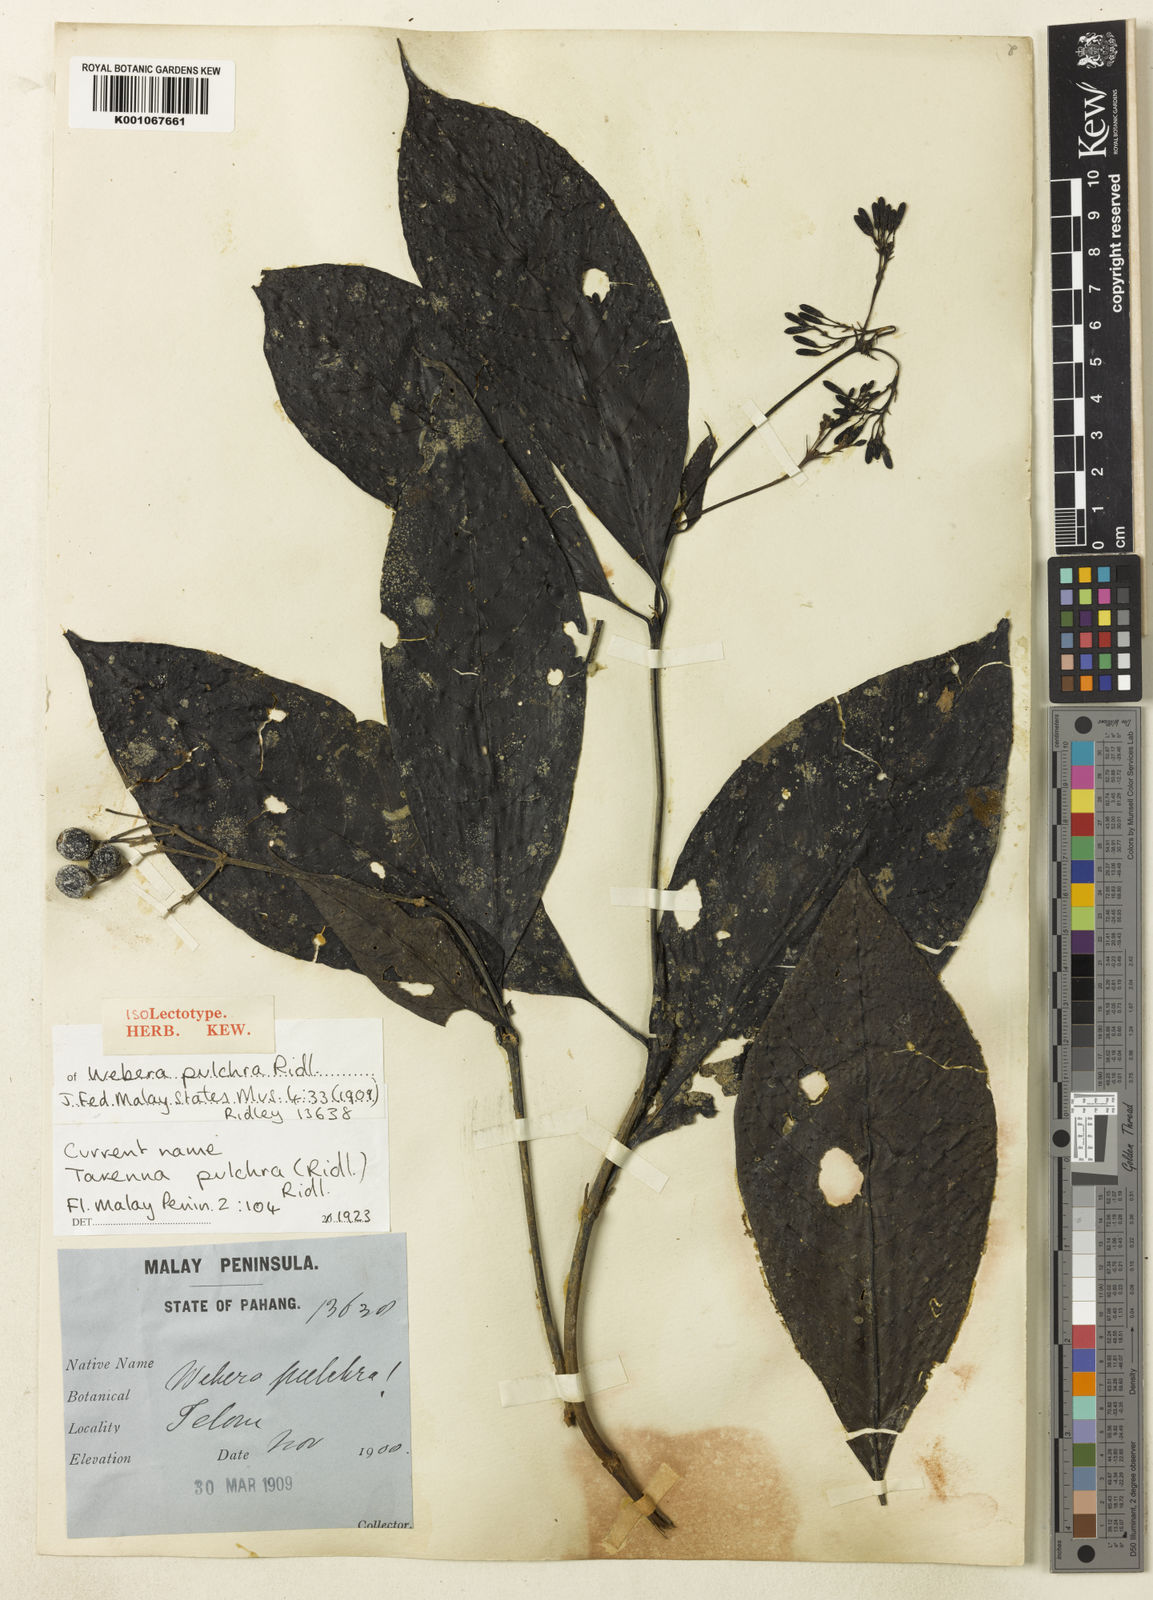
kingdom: Plantae
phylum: Tracheophyta
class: Magnoliopsida
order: Gentianales
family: Rubiaceae
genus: Tarenna
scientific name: Tarenna pulchra
